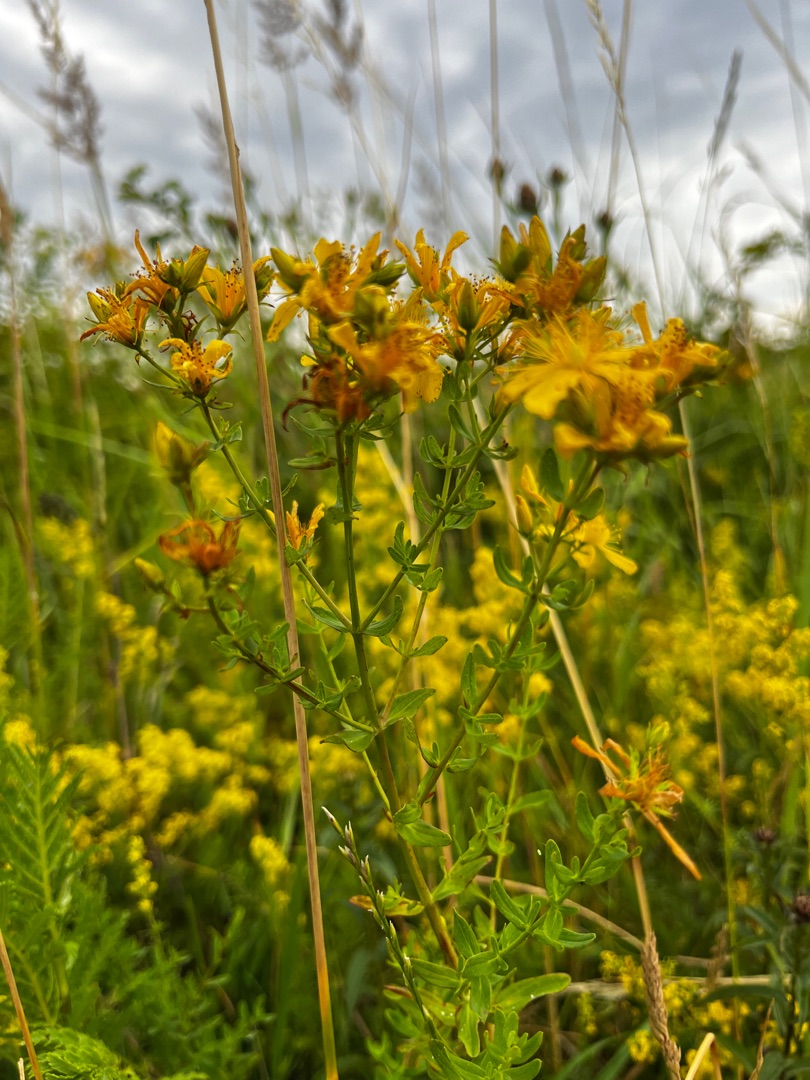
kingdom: Plantae
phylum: Tracheophyta
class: Magnoliopsida
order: Malpighiales
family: Hypericaceae
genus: Hypericum
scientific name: Hypericum perforatum
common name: Prikbladet perikon
